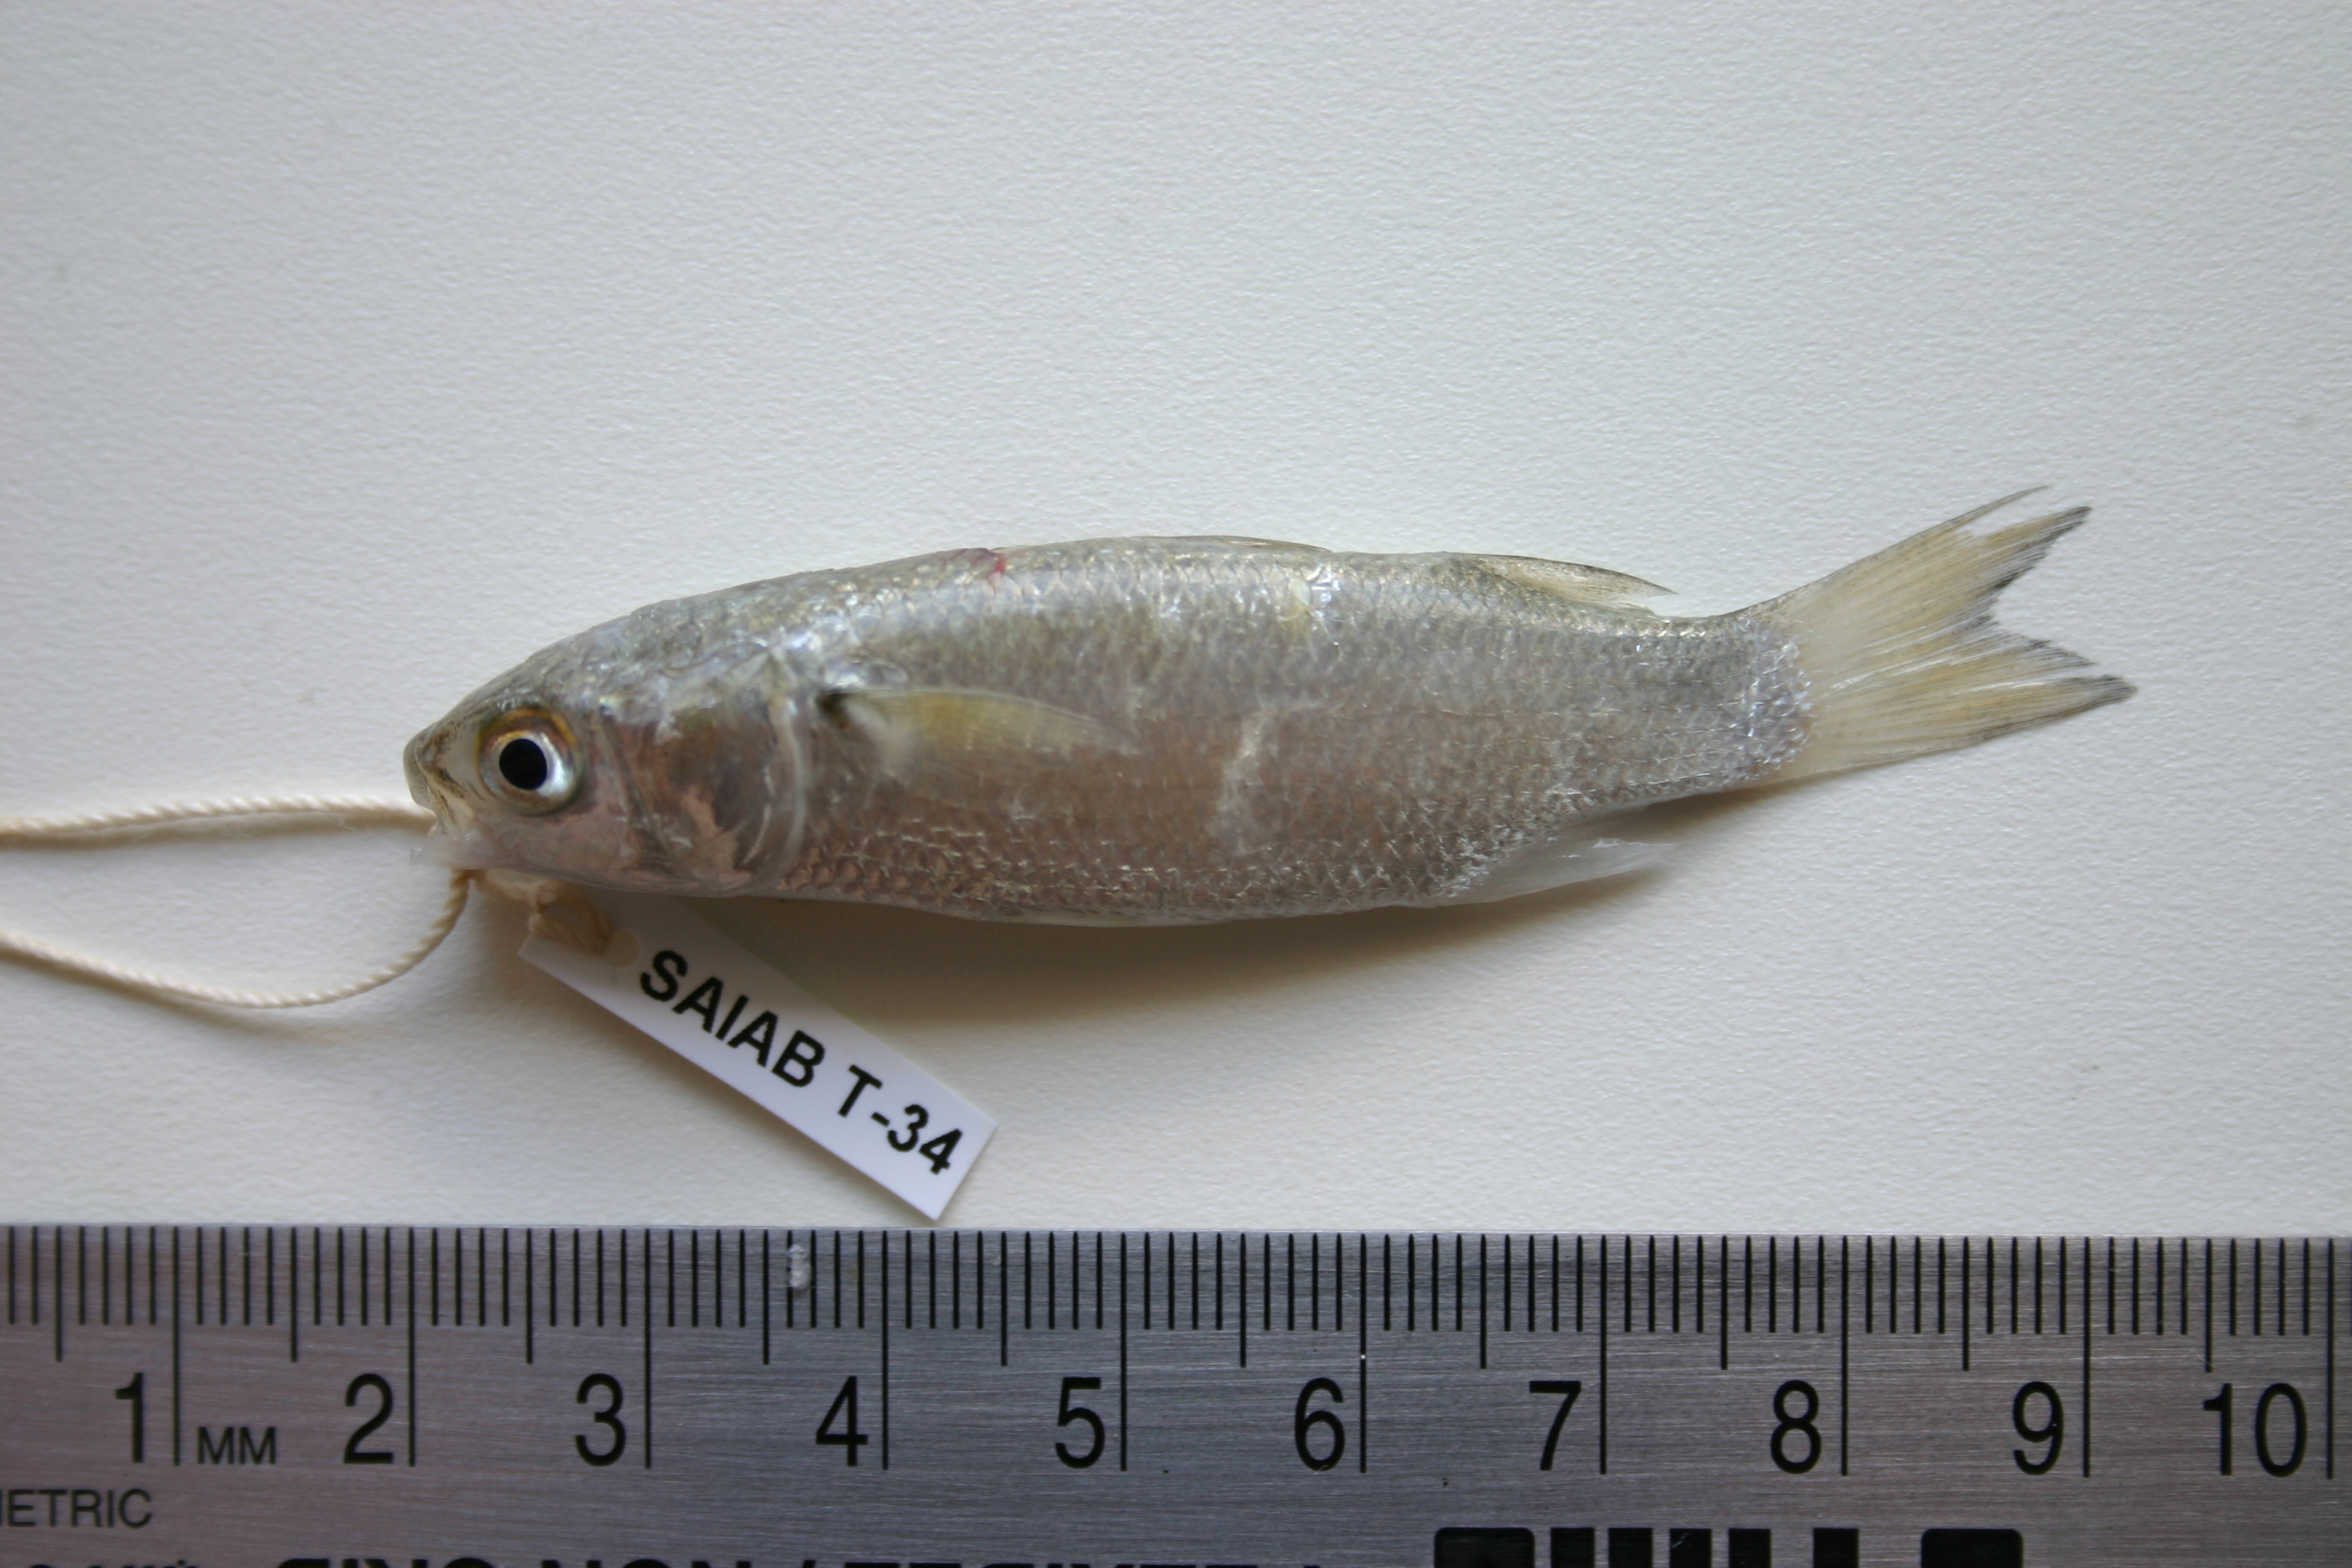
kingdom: Animalia
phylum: Chordata
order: Mugiliformes
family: Mugilidae
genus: Crenimugil
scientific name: Crenimugil seheli
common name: Bluespot mullet
